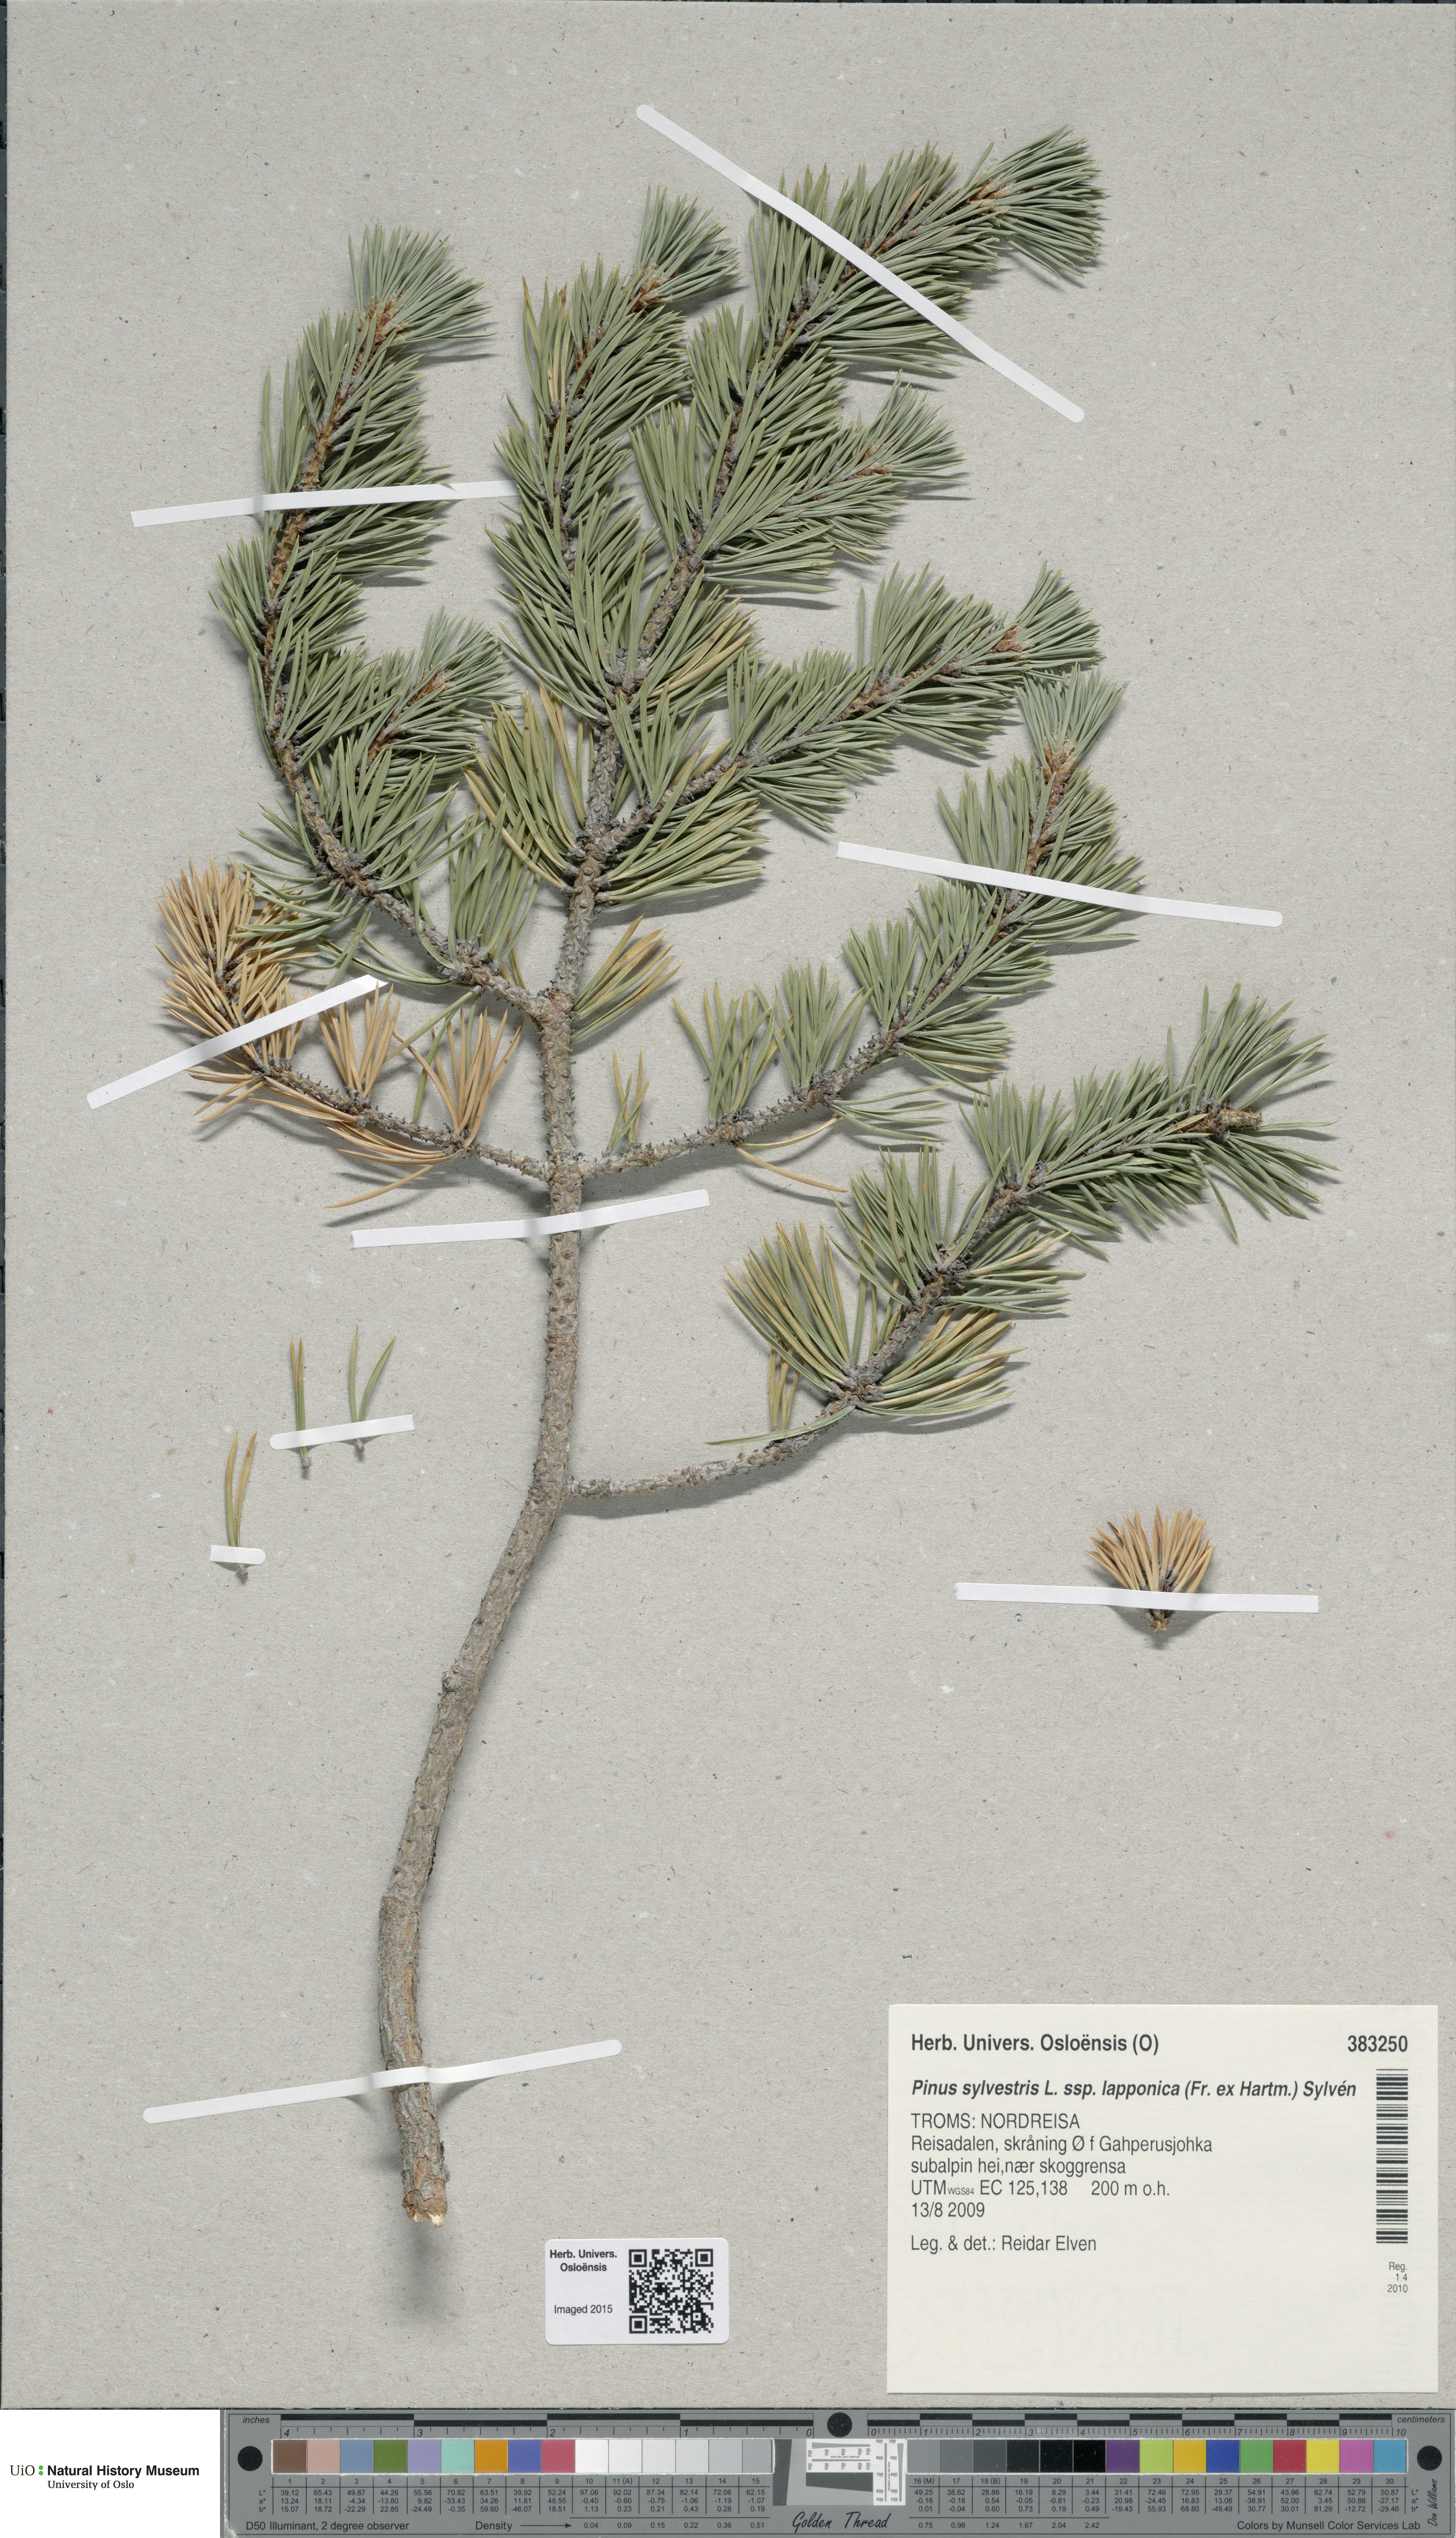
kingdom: Plantae
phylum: Tracheophyta
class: Pinopsida
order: Pinales
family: Pinaceae
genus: Pinus
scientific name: Pinus sylvestris
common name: Scots pine
